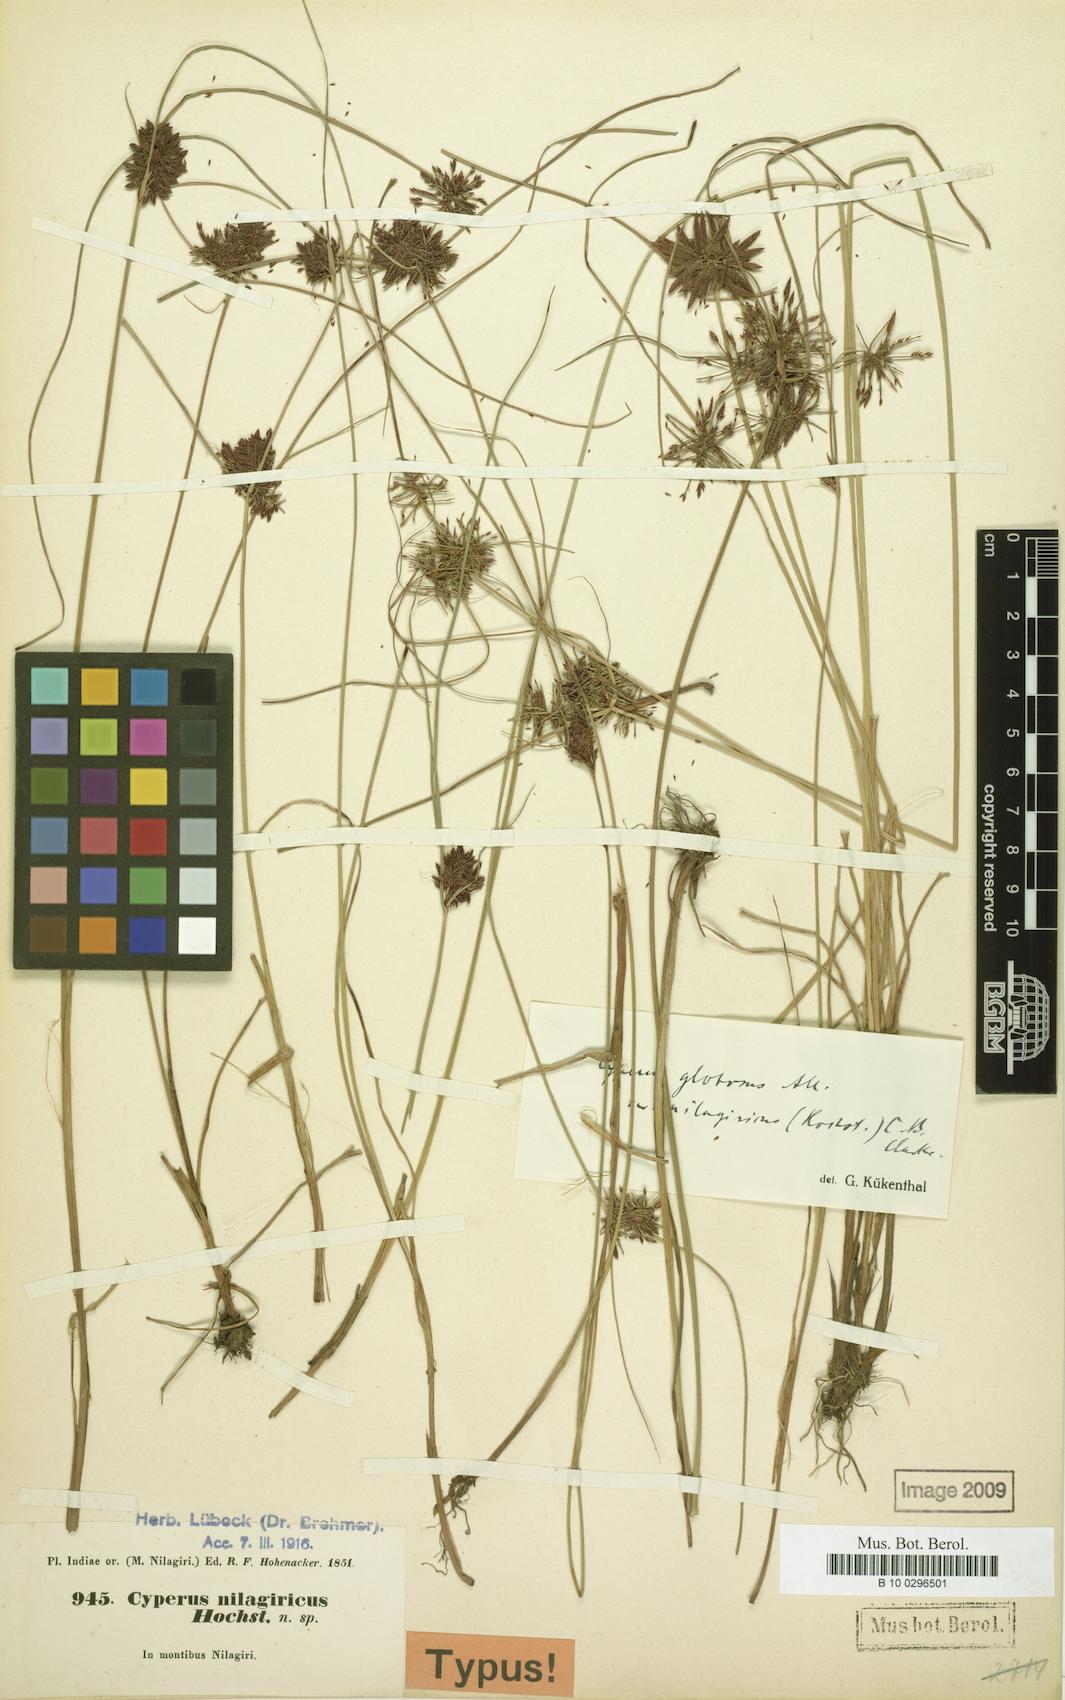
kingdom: Plantae
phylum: Tracheophyta
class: Liliopsida
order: Poales
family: Cyperaceae
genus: Cyperus
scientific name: Cyperus flavidus
